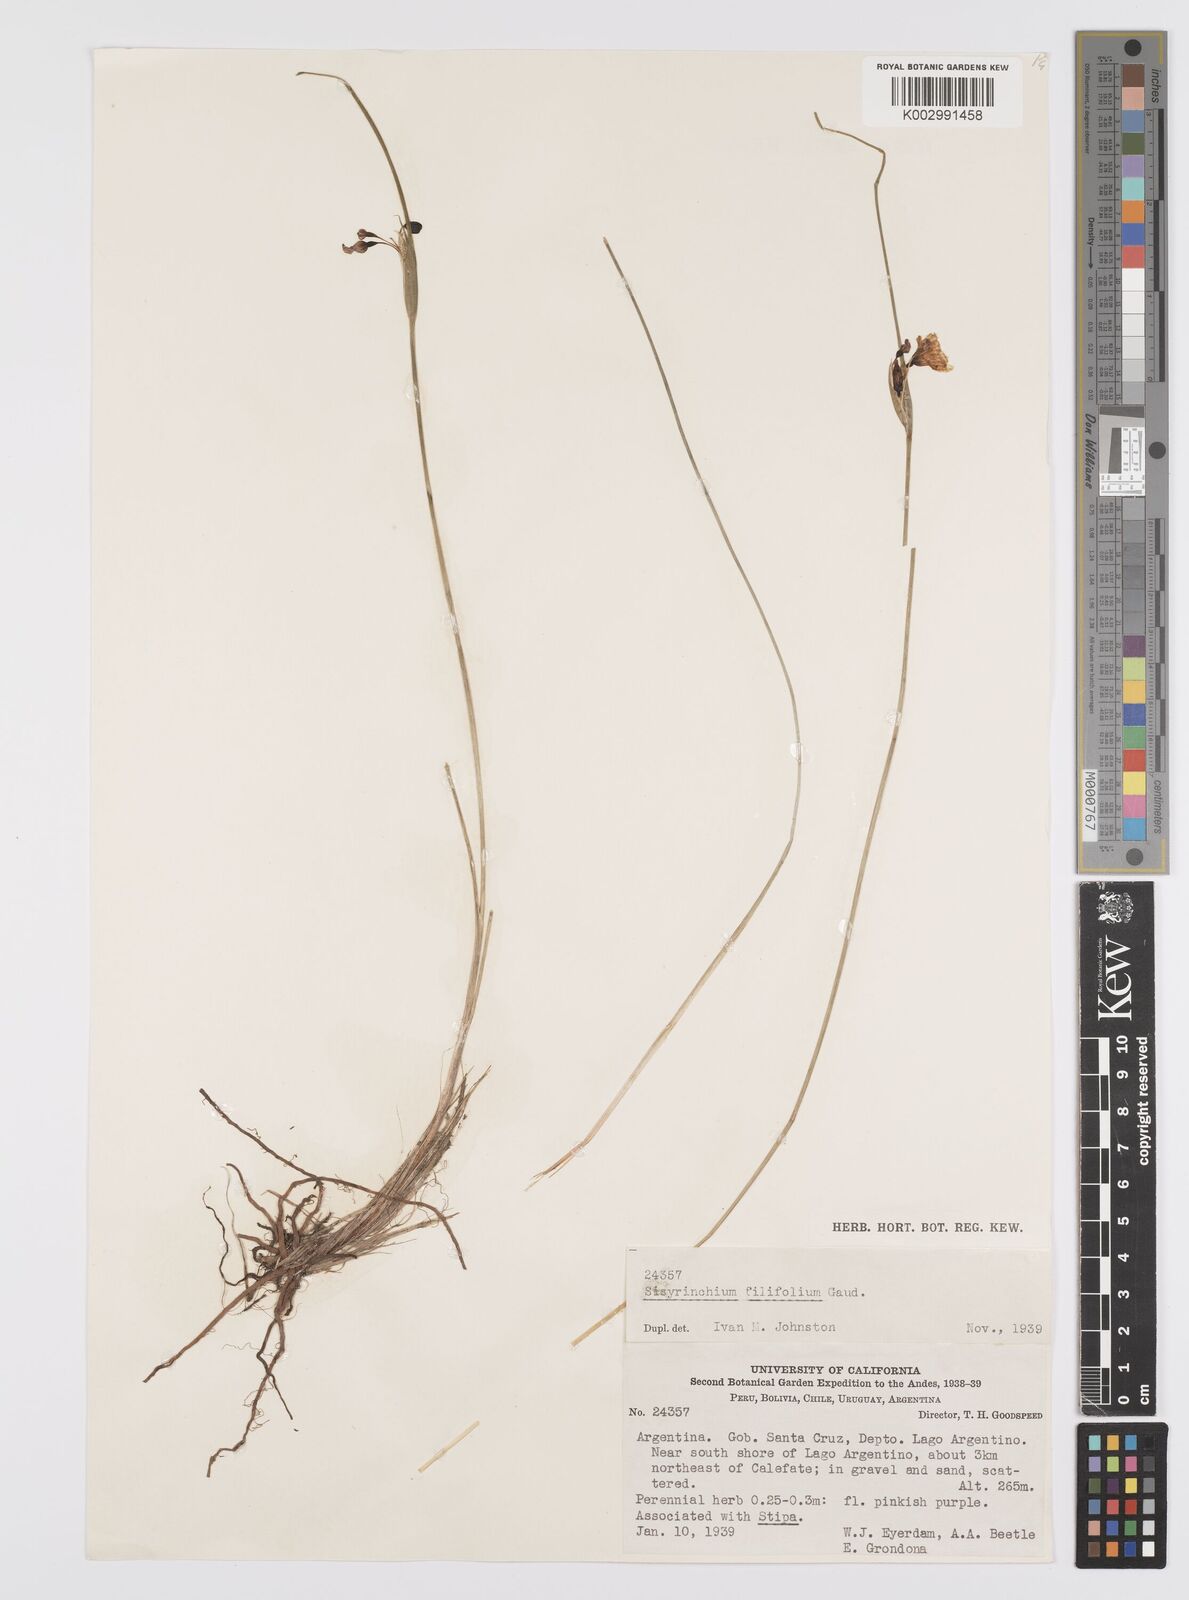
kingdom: Plantae
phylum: Tracheophyta
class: Liliopsida
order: Asparagales
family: Iridaceae
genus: Olsynium
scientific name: Olsynium filifolium
